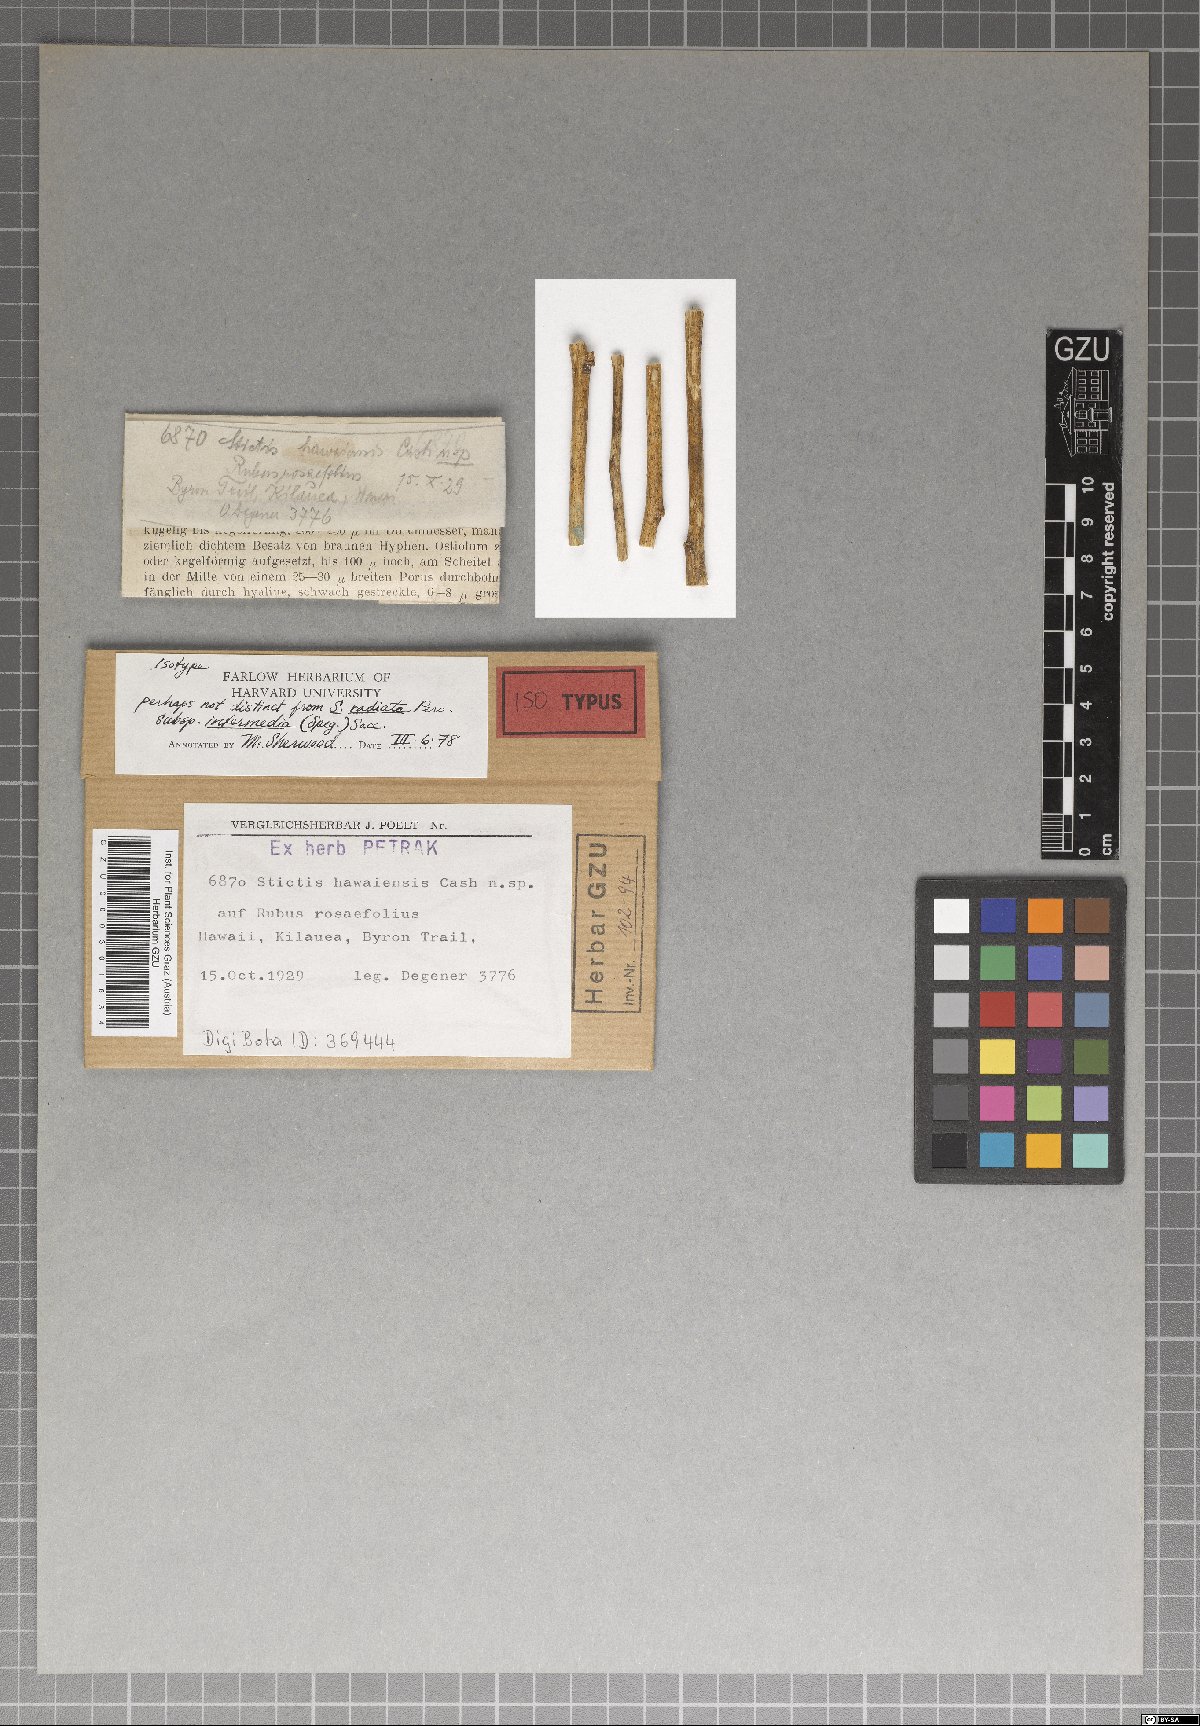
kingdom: Fungi
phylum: Ascomycota
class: Lecanoromycetes
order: Ostropales
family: Stictidaceae
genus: Stictis
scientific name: Stictis hawaiensis
